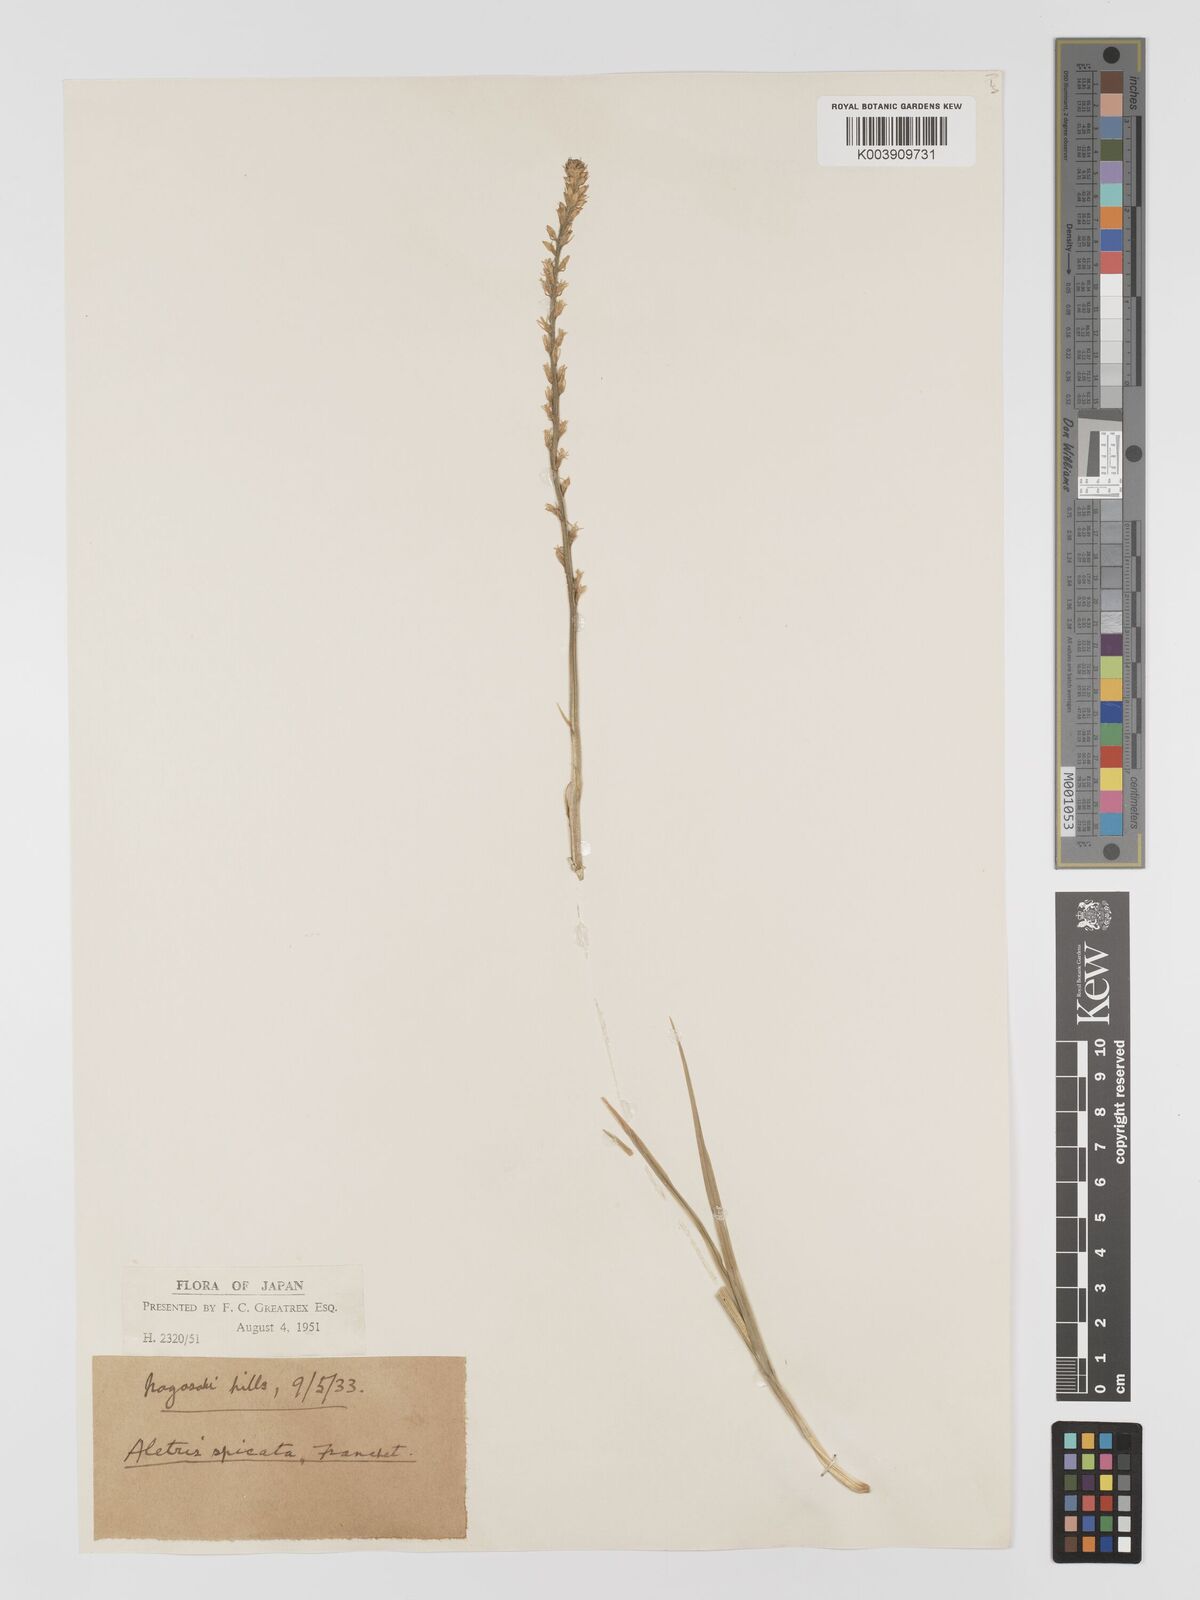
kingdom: Plantae
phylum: Tracheophyta
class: Liliopsida
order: Dioscoreales
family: Nartheciaceae
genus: Aletris
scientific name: Aletris spicata
